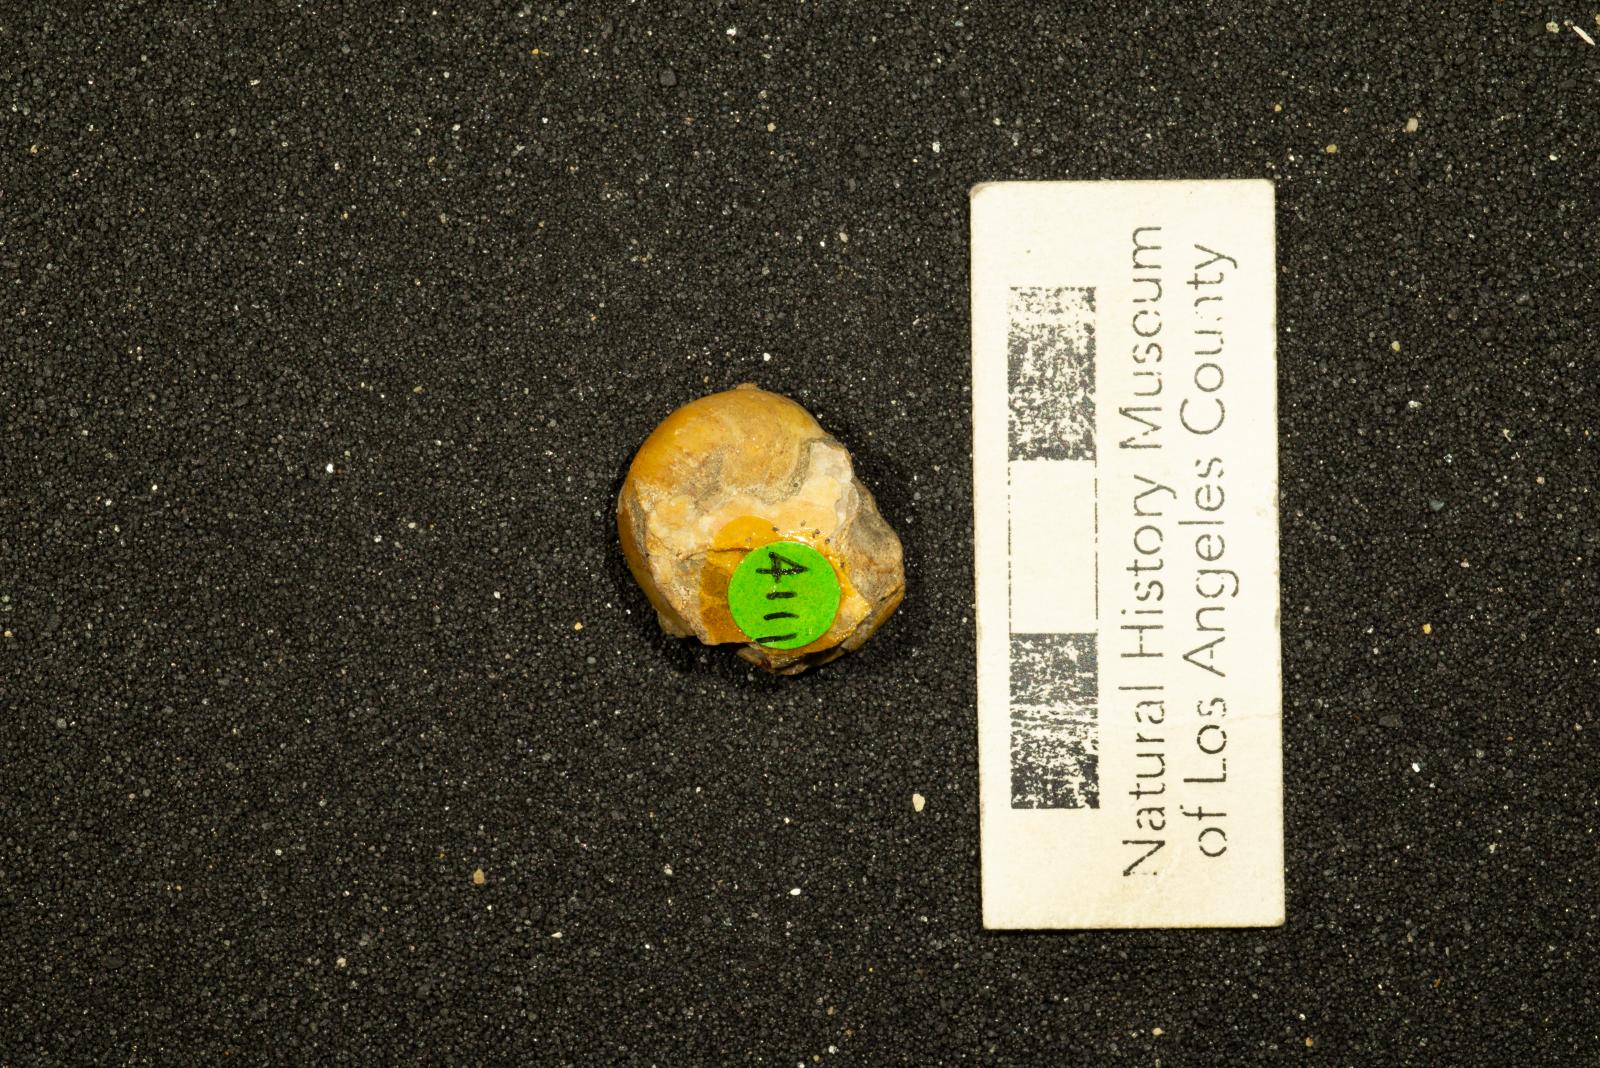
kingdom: Animalia
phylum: Mollusca
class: Gastropoda
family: Gyrodidae
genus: Gyrodes
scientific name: Gyrodes pacificus
